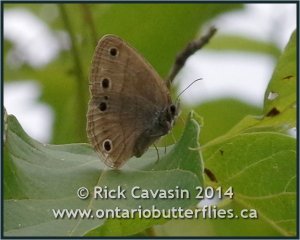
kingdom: Animalia
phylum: Arthropoda
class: Insecta
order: Lepidoptera
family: Nymphalidae
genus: Euptychia
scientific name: Euptychia cymela
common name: Little Wood Satyr
